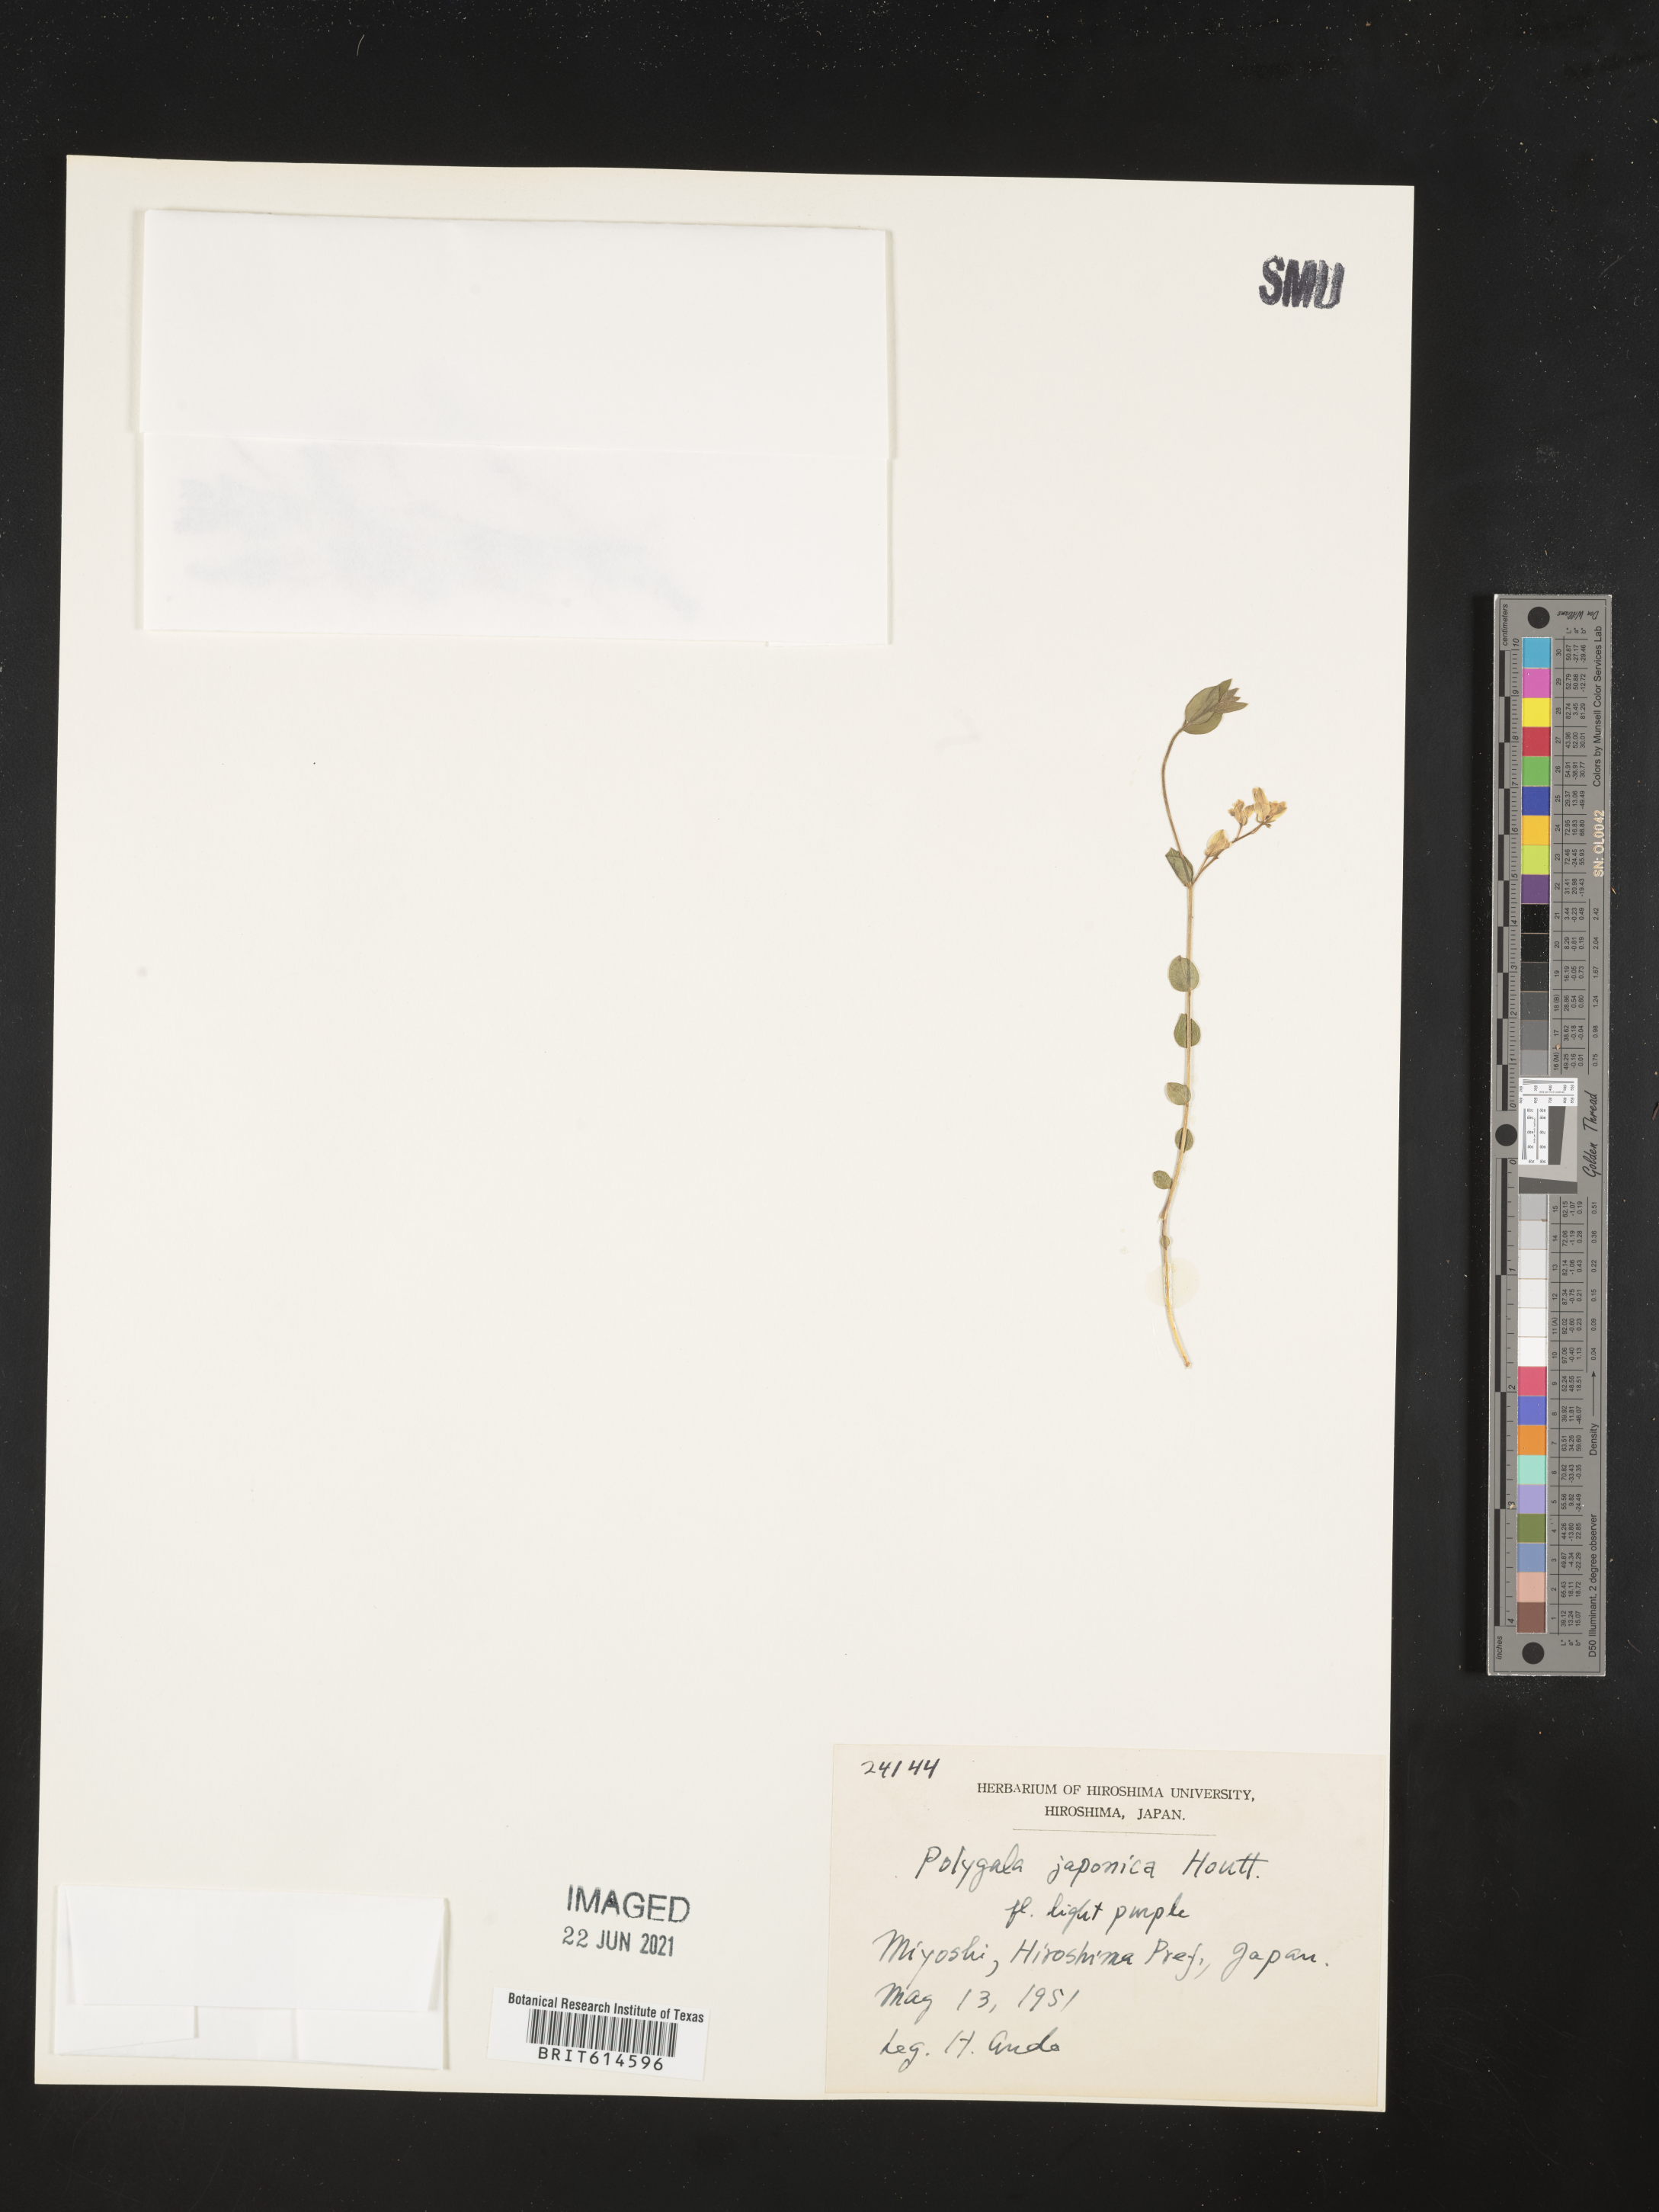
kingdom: Plantae
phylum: Tracheophyta
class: Magnoliopsida
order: Fabales
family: Polygalaceae
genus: Polygala
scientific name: Polygala japonica
